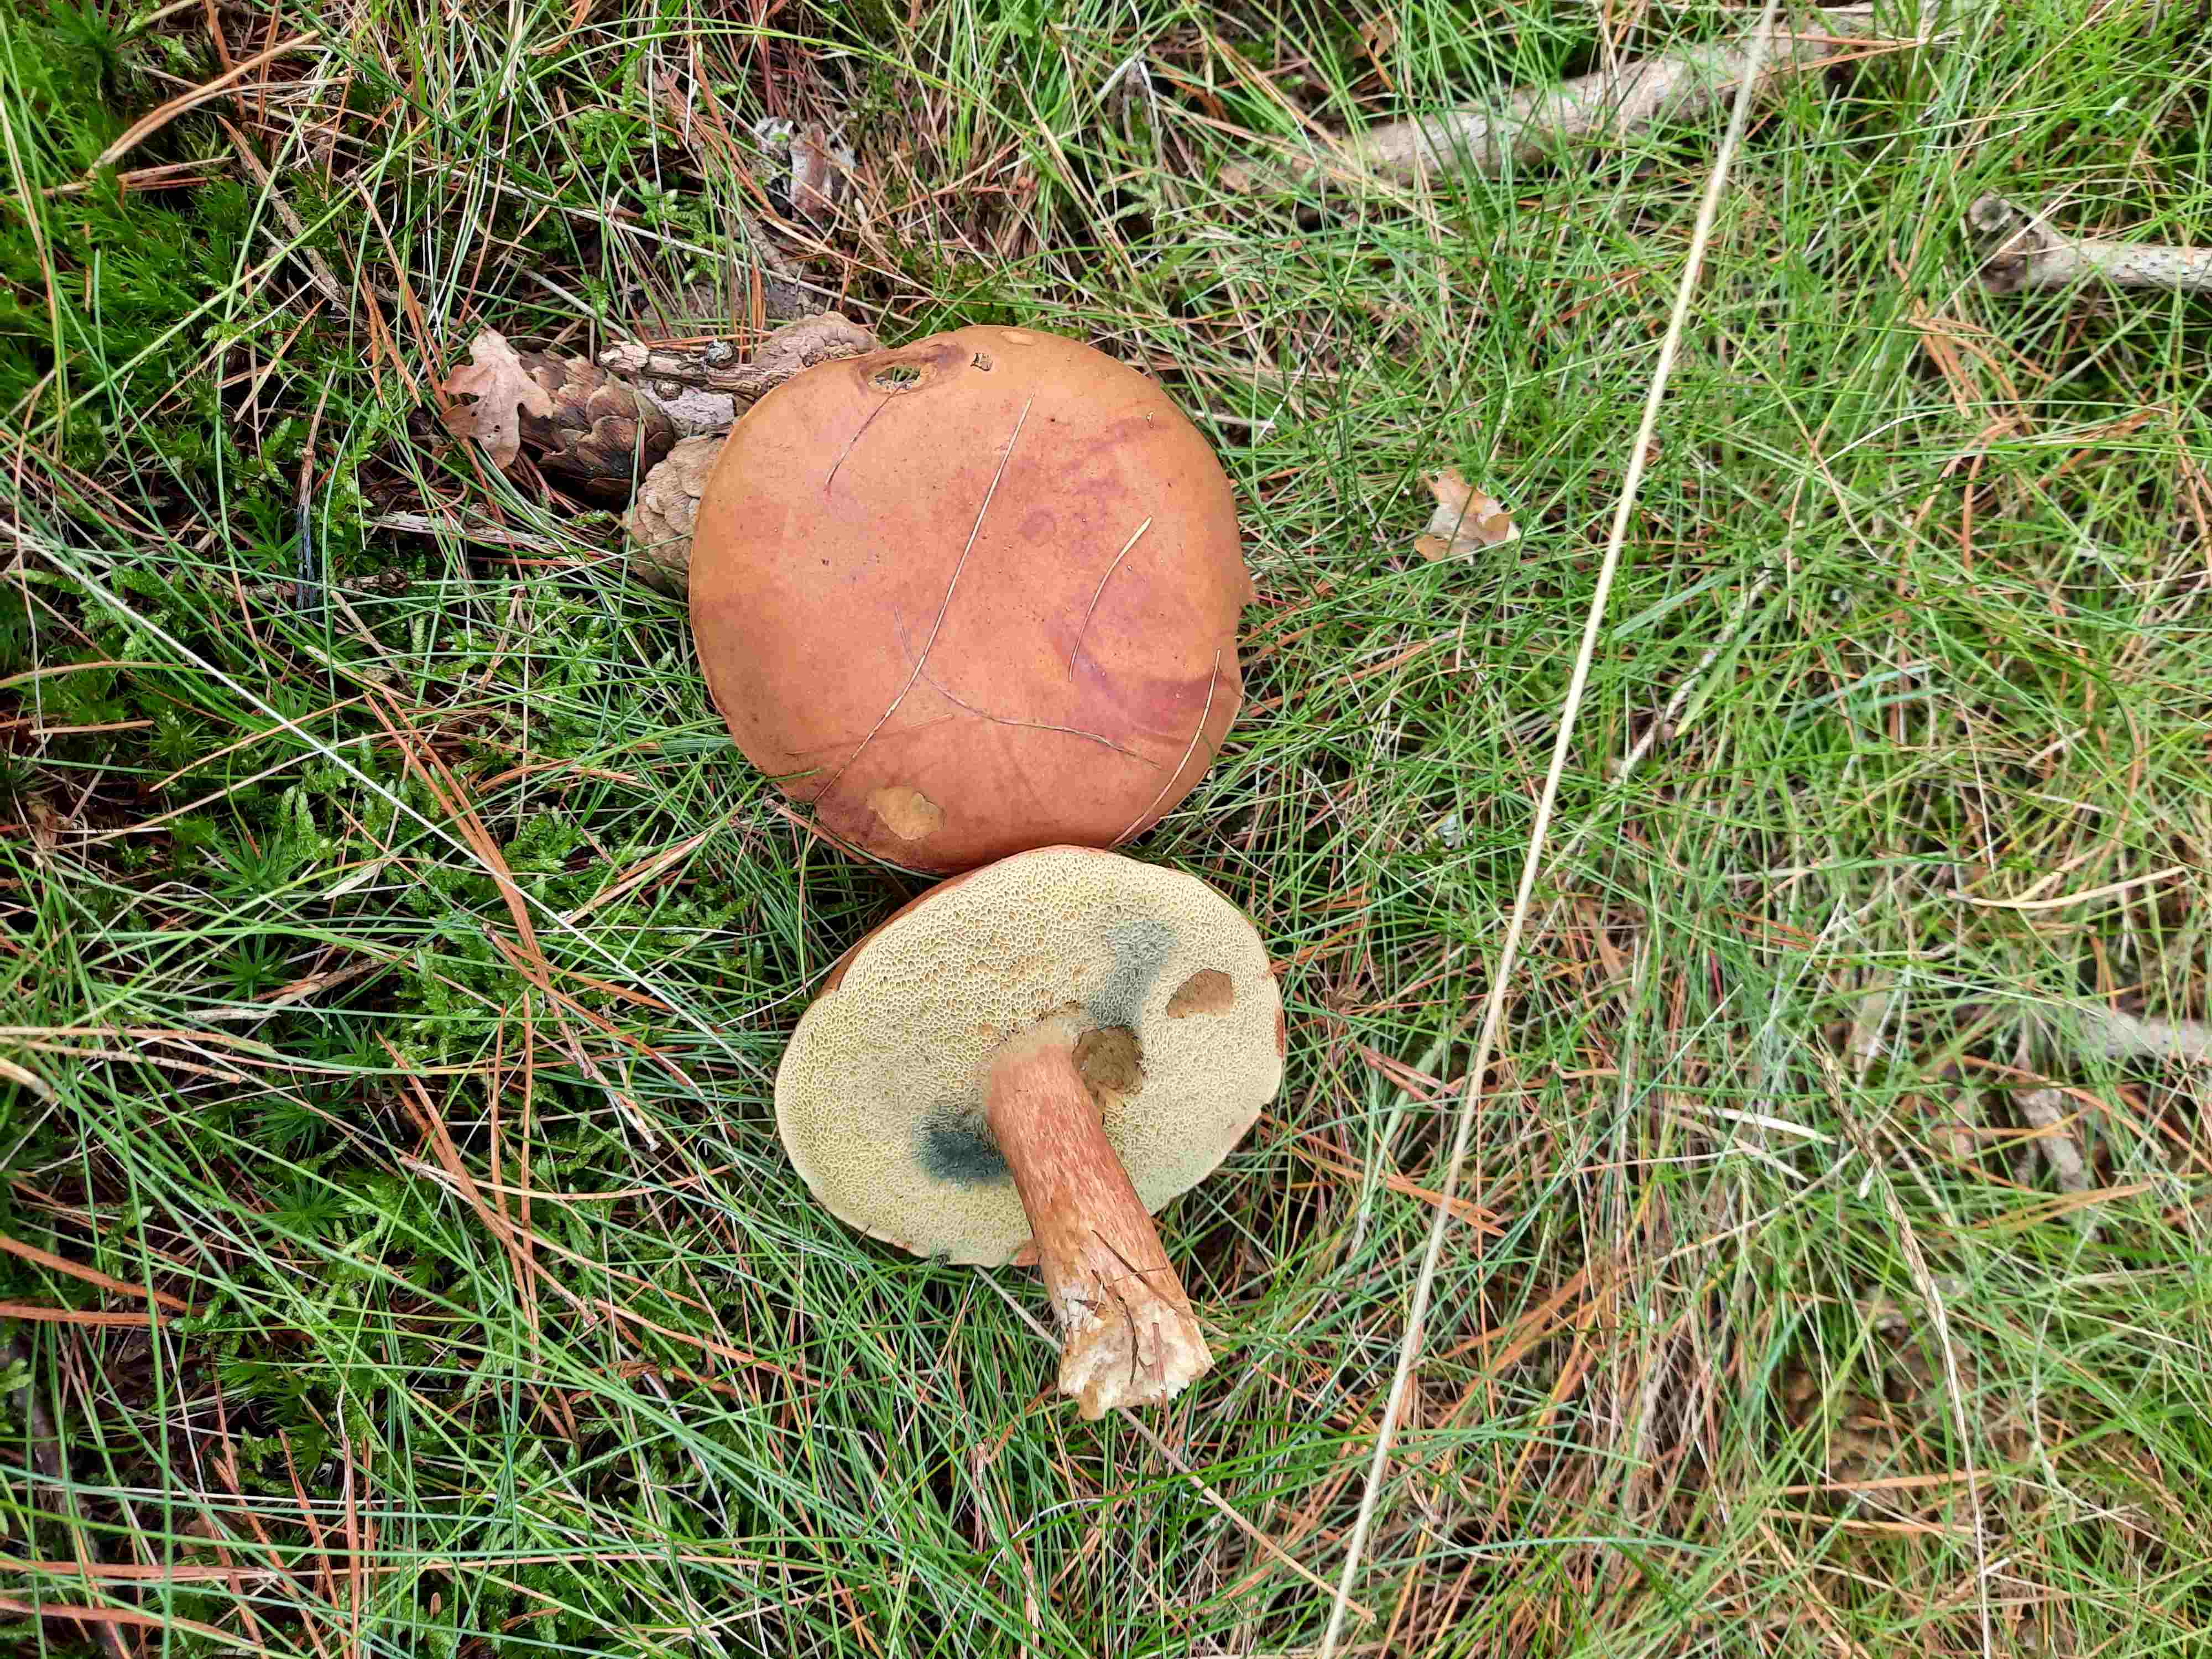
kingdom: Fungi
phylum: Basidiomycota
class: Agaricomycetes
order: Boletales
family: Boletaceae
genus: Imleria
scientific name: Imleria badia
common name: brunstokket rørhat
